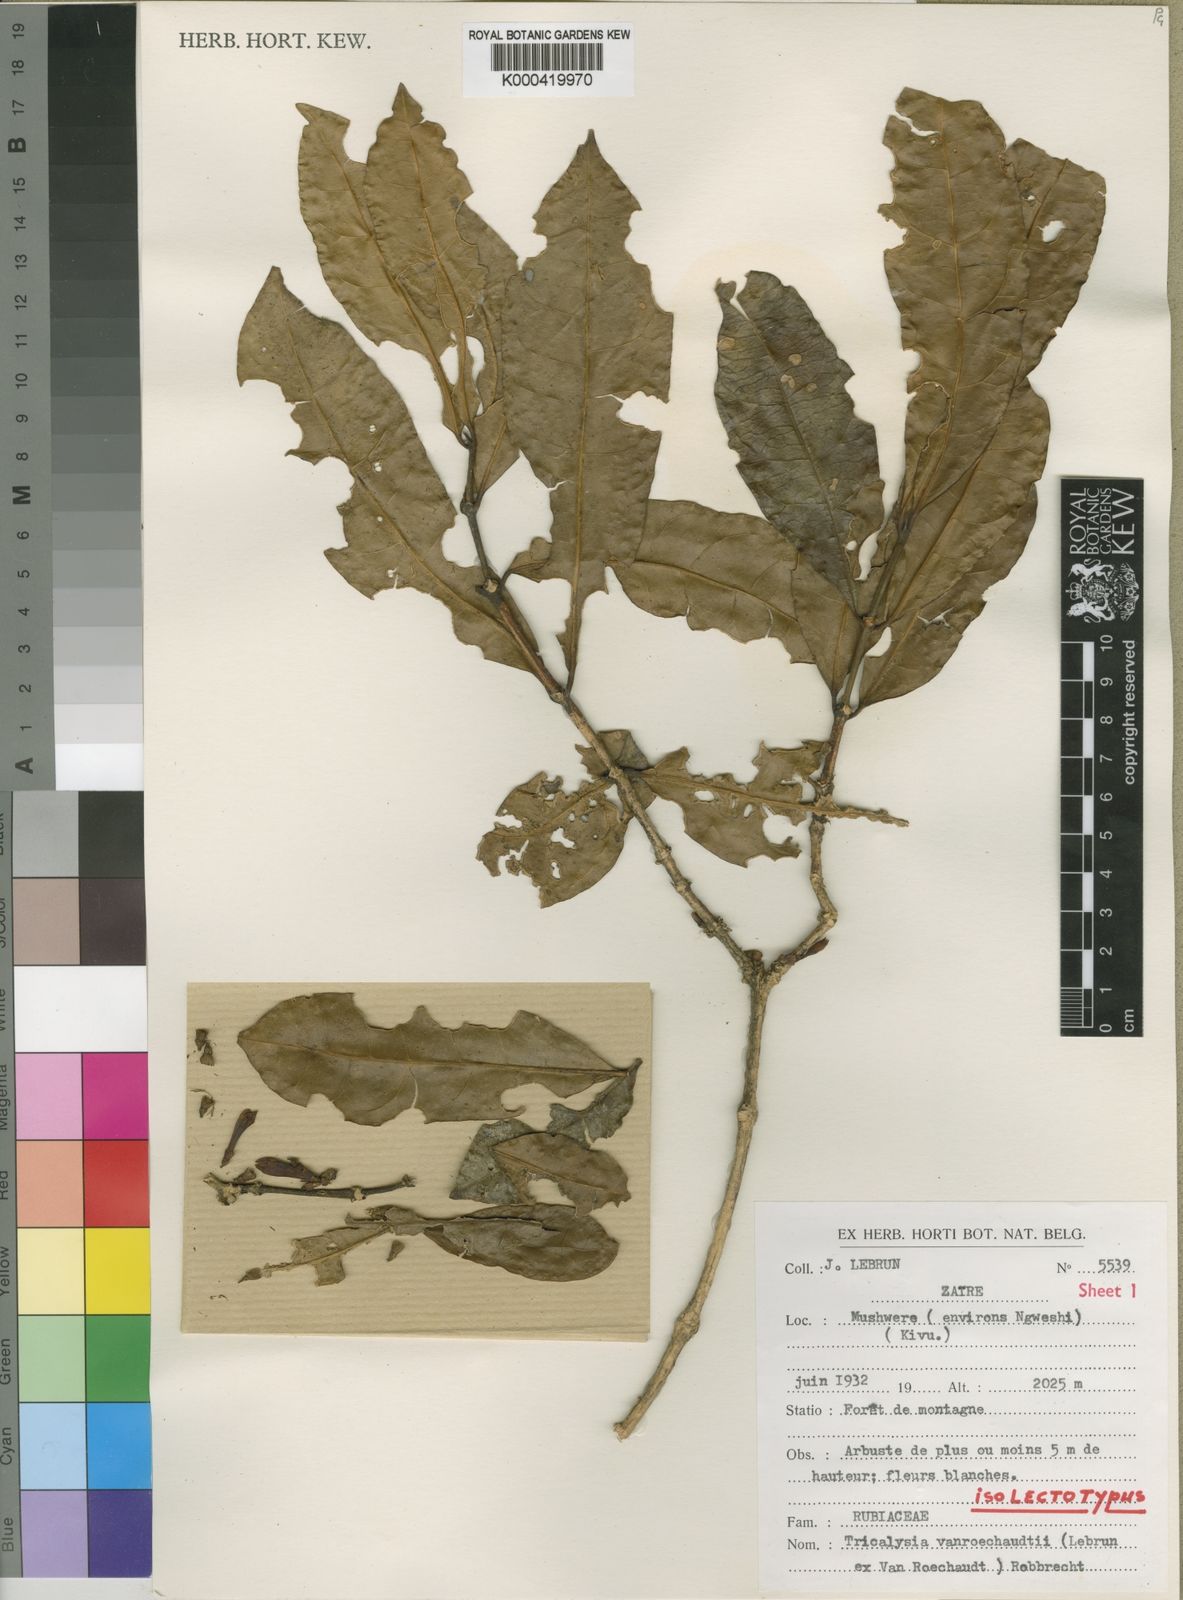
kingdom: Plantae
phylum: Tracheophyta
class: Magnoliopsida
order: Gentianales
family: Rubiaceae
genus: Tricalysia
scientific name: Tricalysia vanroechoudtii
